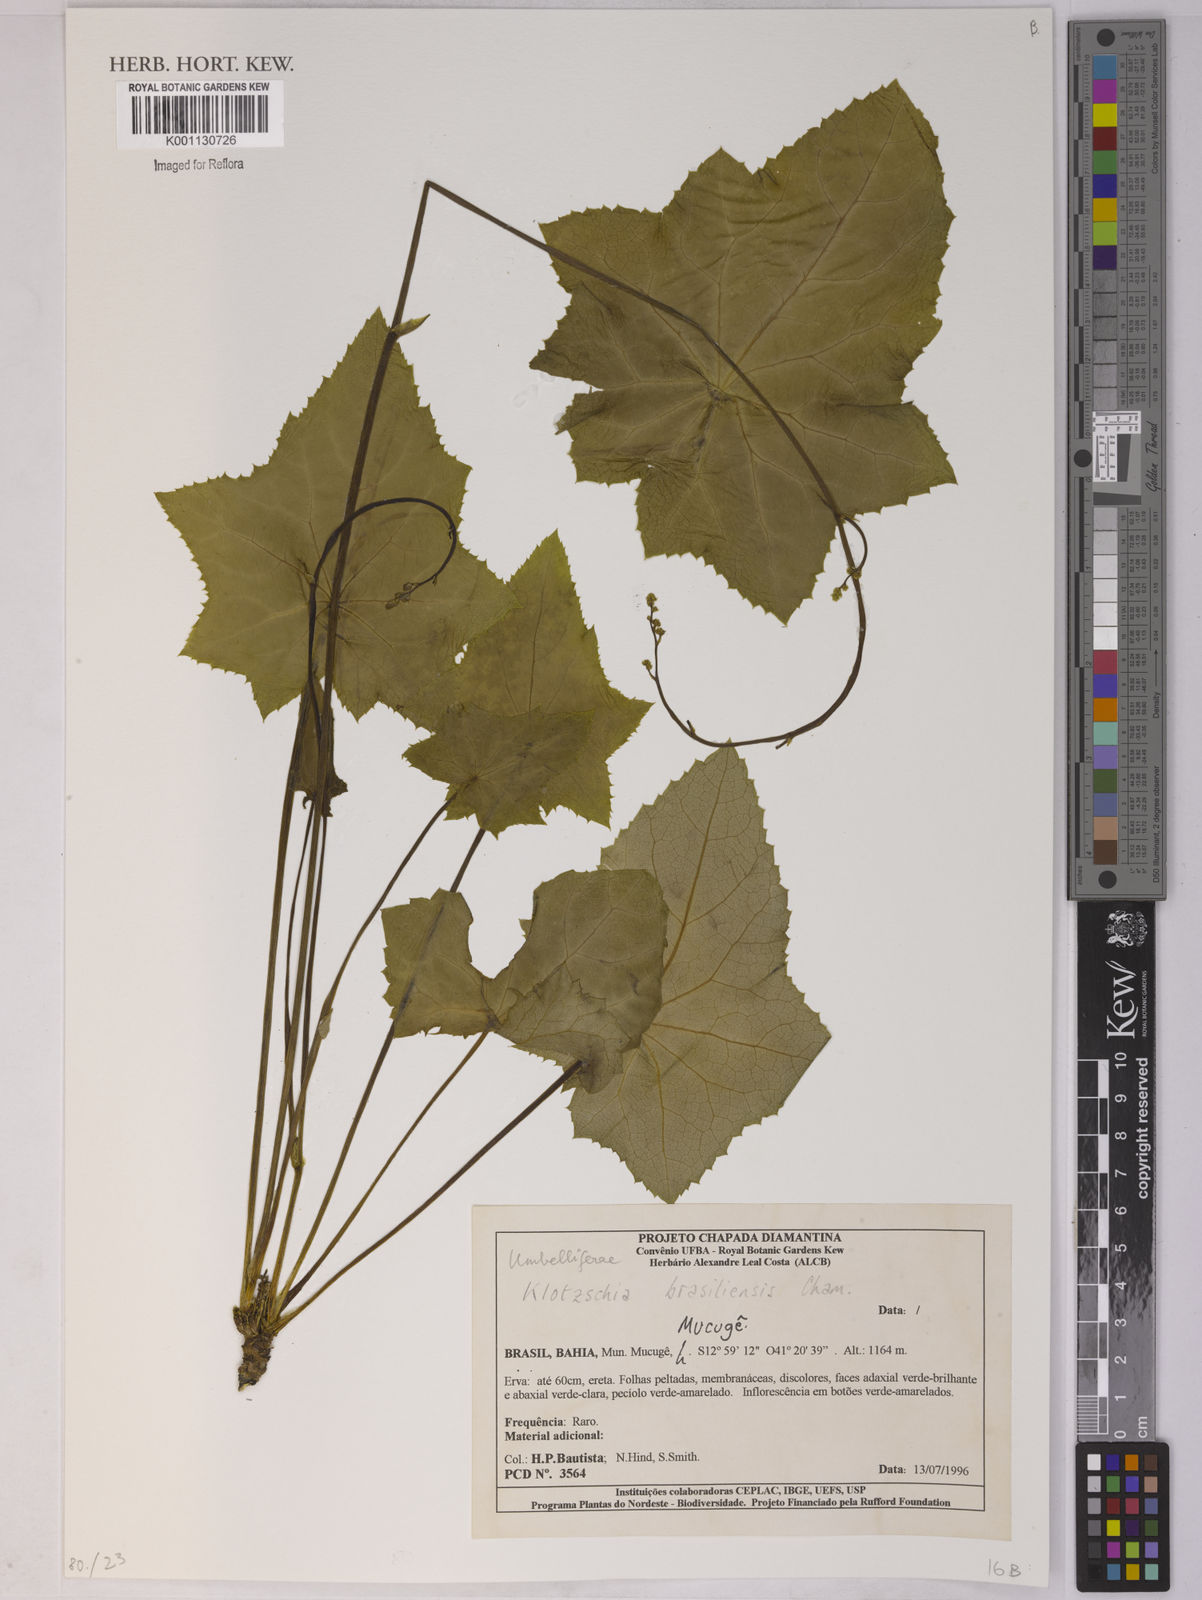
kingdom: Plantae
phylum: Tracheophyta
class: Magnoliopsida
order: Apiales
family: Apiaceae
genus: Klotzschia
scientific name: Klotzschia brasiliensis
